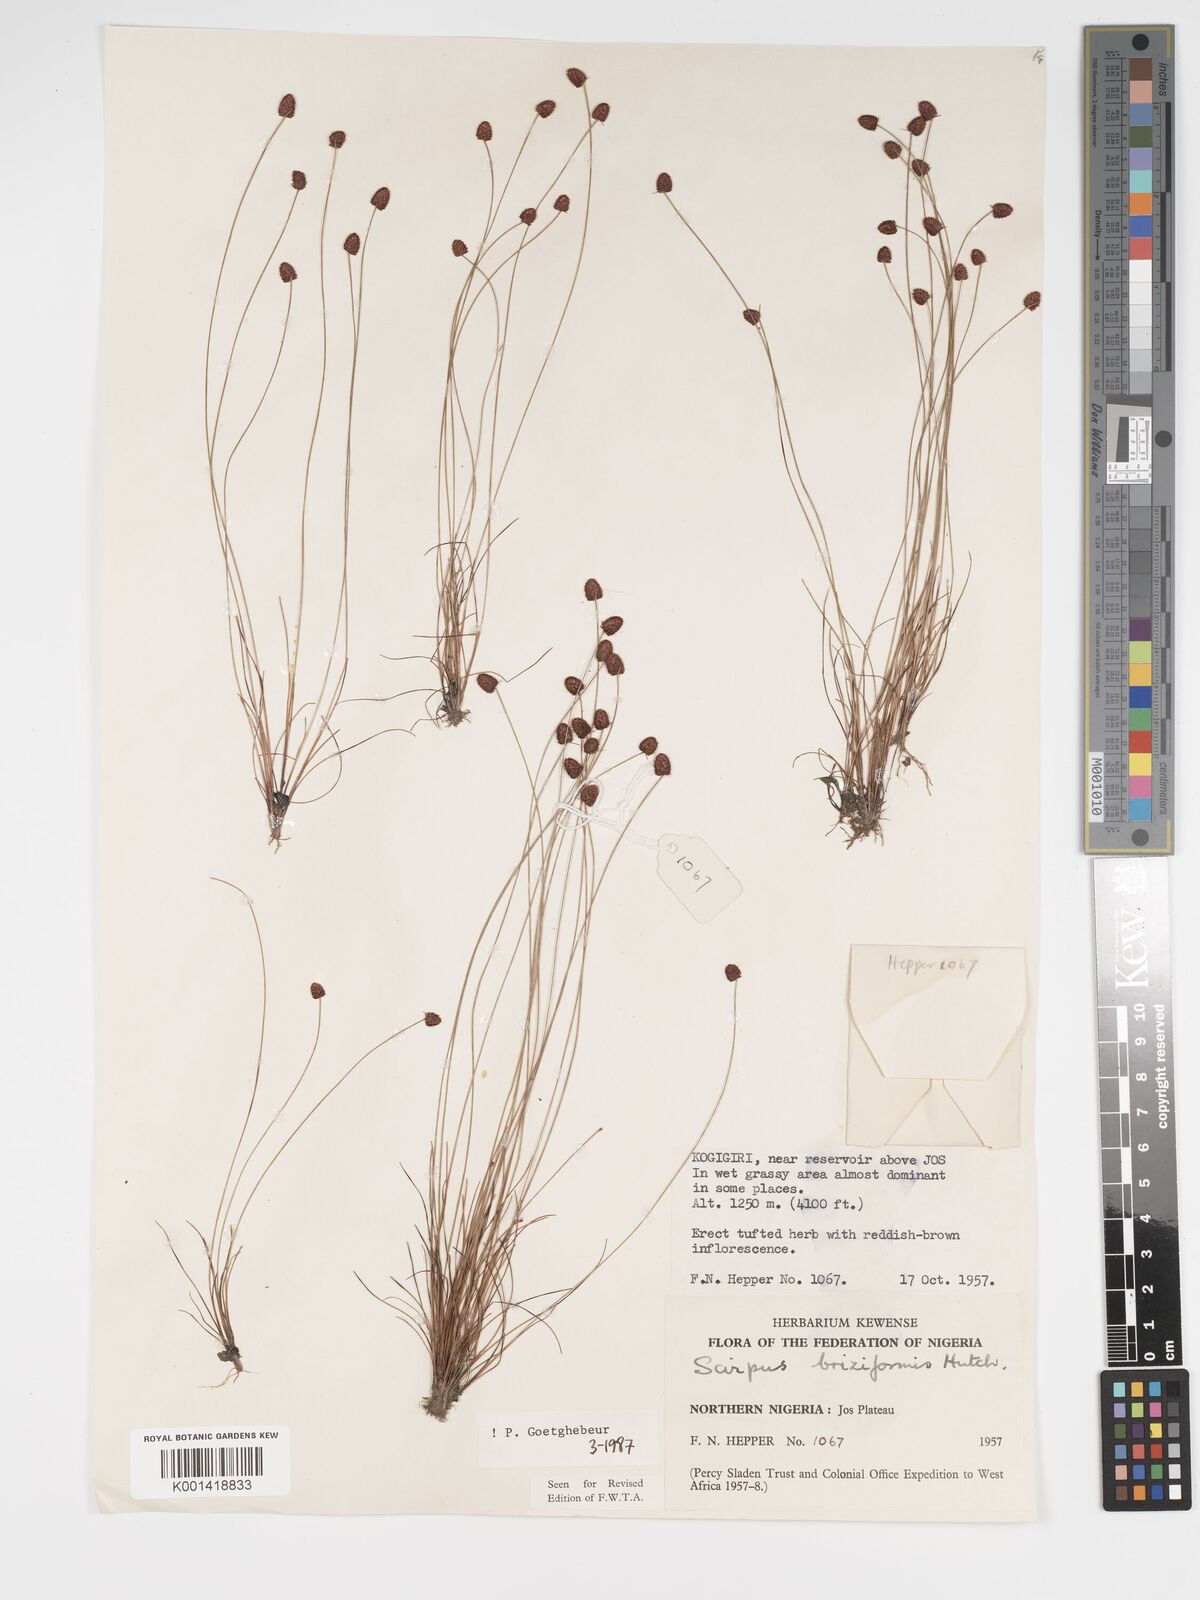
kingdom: Plantae
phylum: Tracheophyta
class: Liliopsida
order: Poales
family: Cyperaceae
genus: Bulbostylis
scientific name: Bulbostylis briziformis
